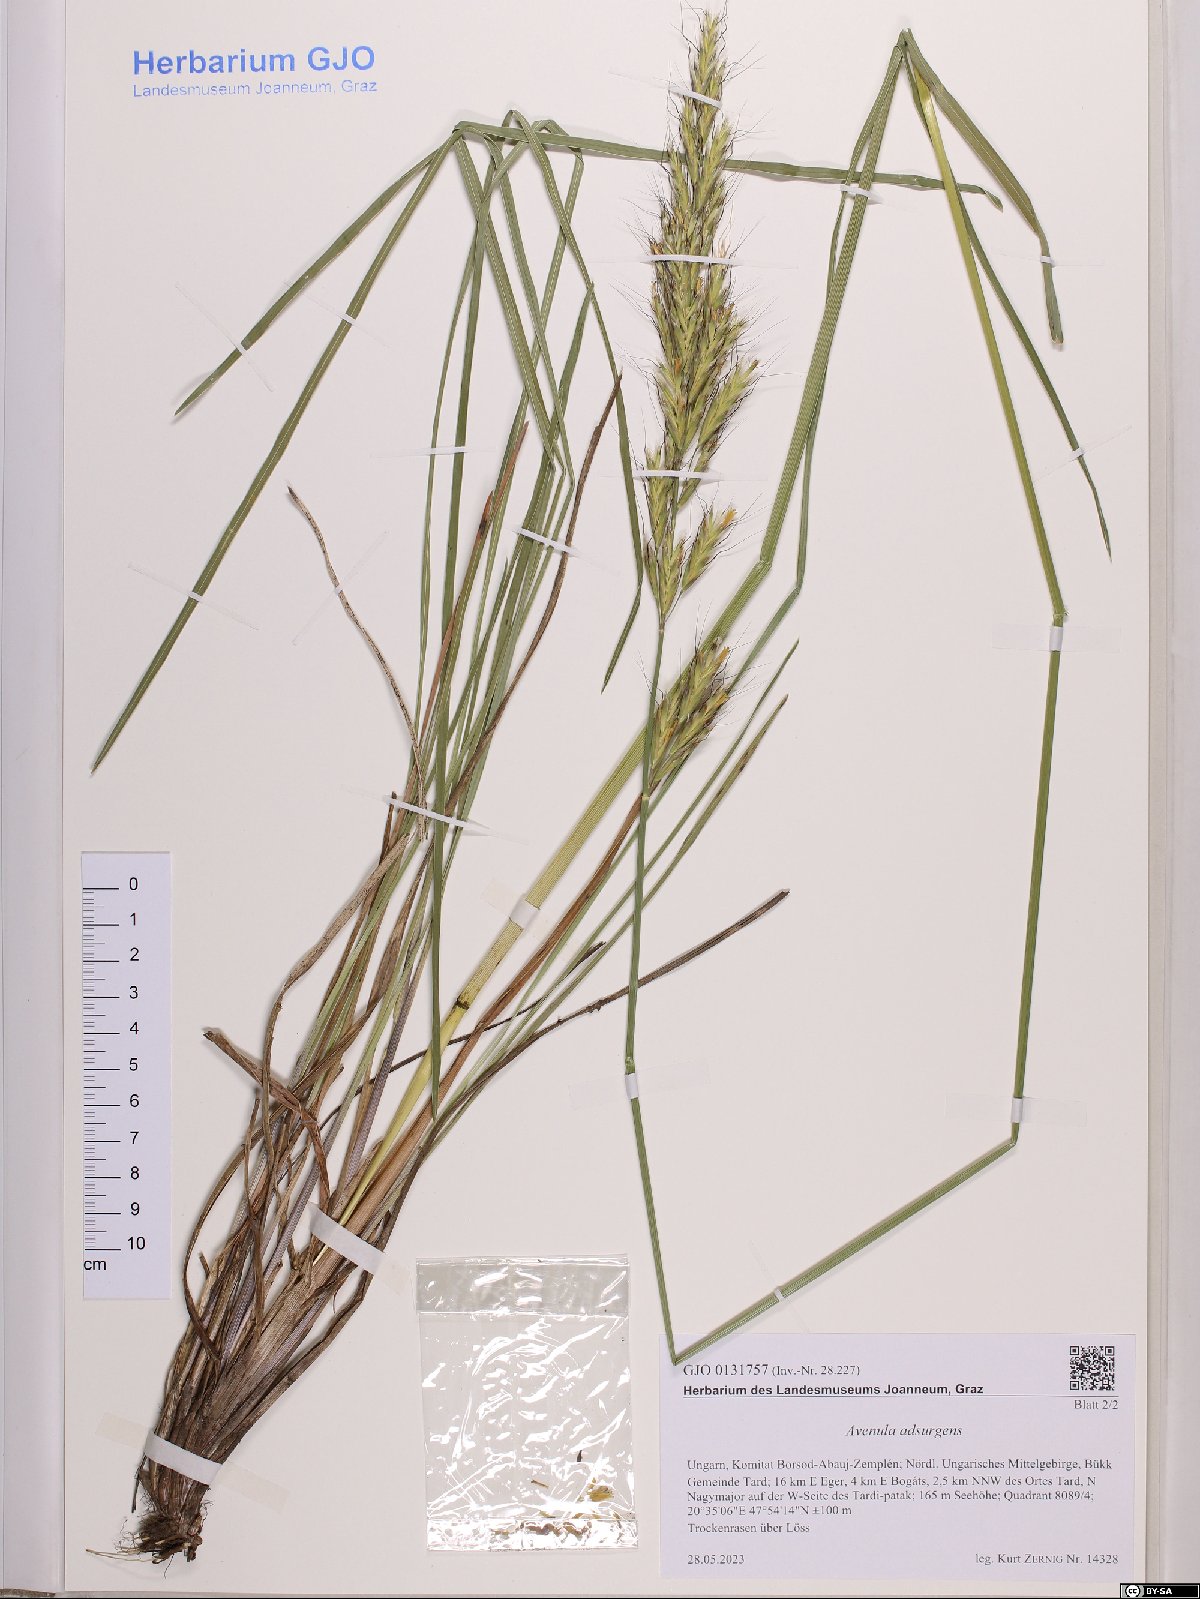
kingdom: Plantae
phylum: Tracheophyta
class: Liliopsida
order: Poales
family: Poaceae
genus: Helictochloa
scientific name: Helictochloa praeusta
